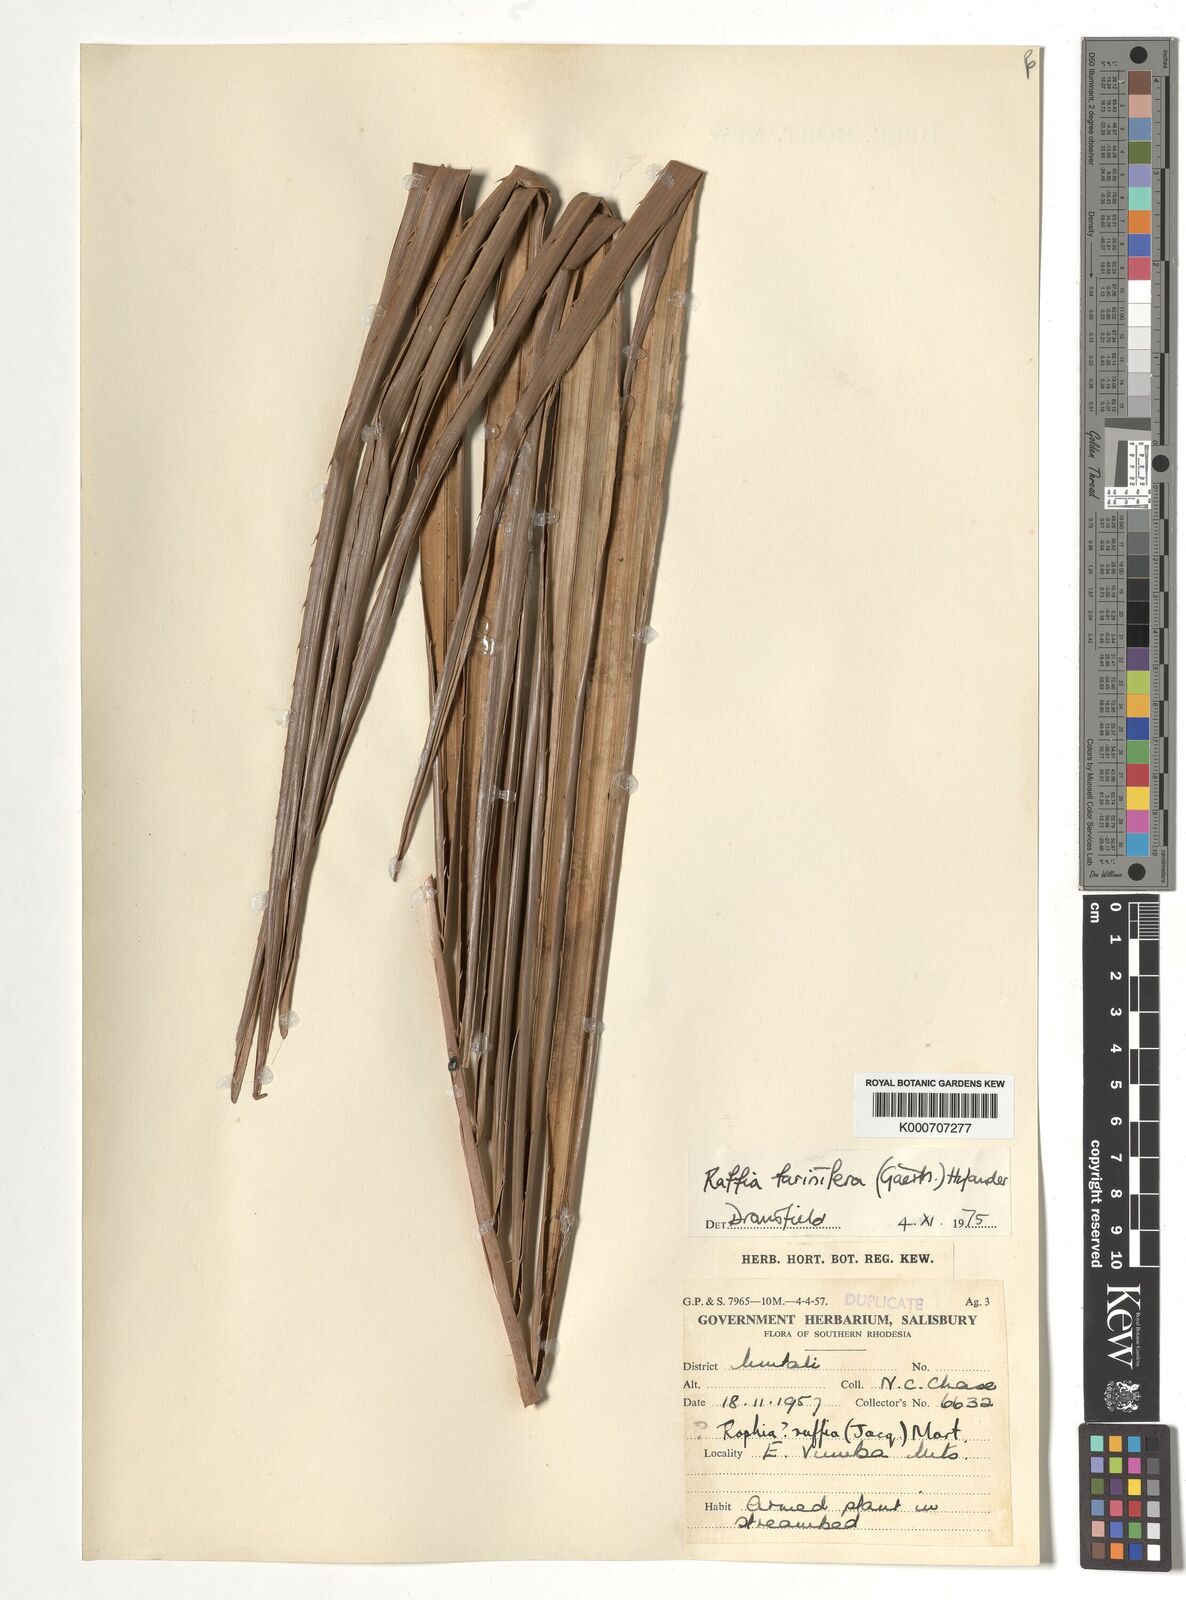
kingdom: Plantae
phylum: Tracheophyta
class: Liliopsida
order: Arecales
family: Arecaceae
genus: Raphia
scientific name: Raphia farinifera
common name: Raphia palm
